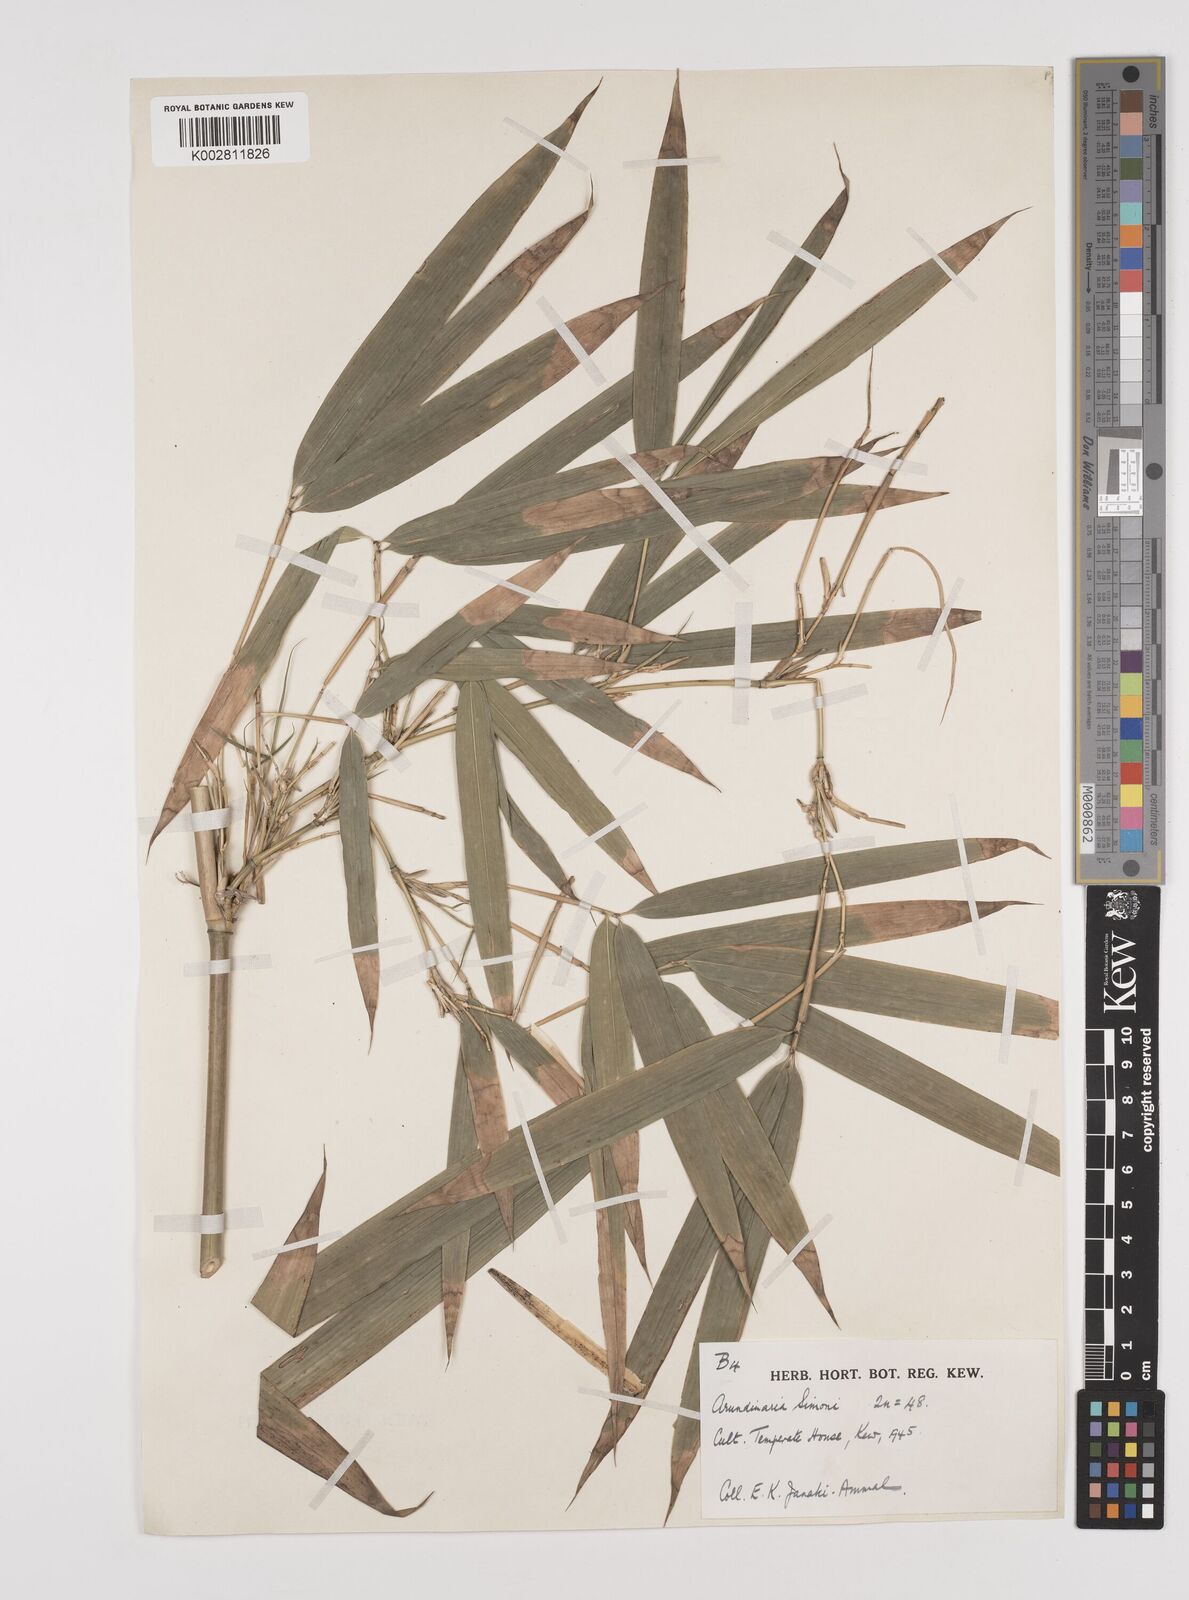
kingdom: Plantae
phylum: Tracheophyta
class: Liliopsida
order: Poales
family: Poaceae
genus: Pleioblastus
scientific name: Pleioblastus simonii
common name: Simon bamboo
